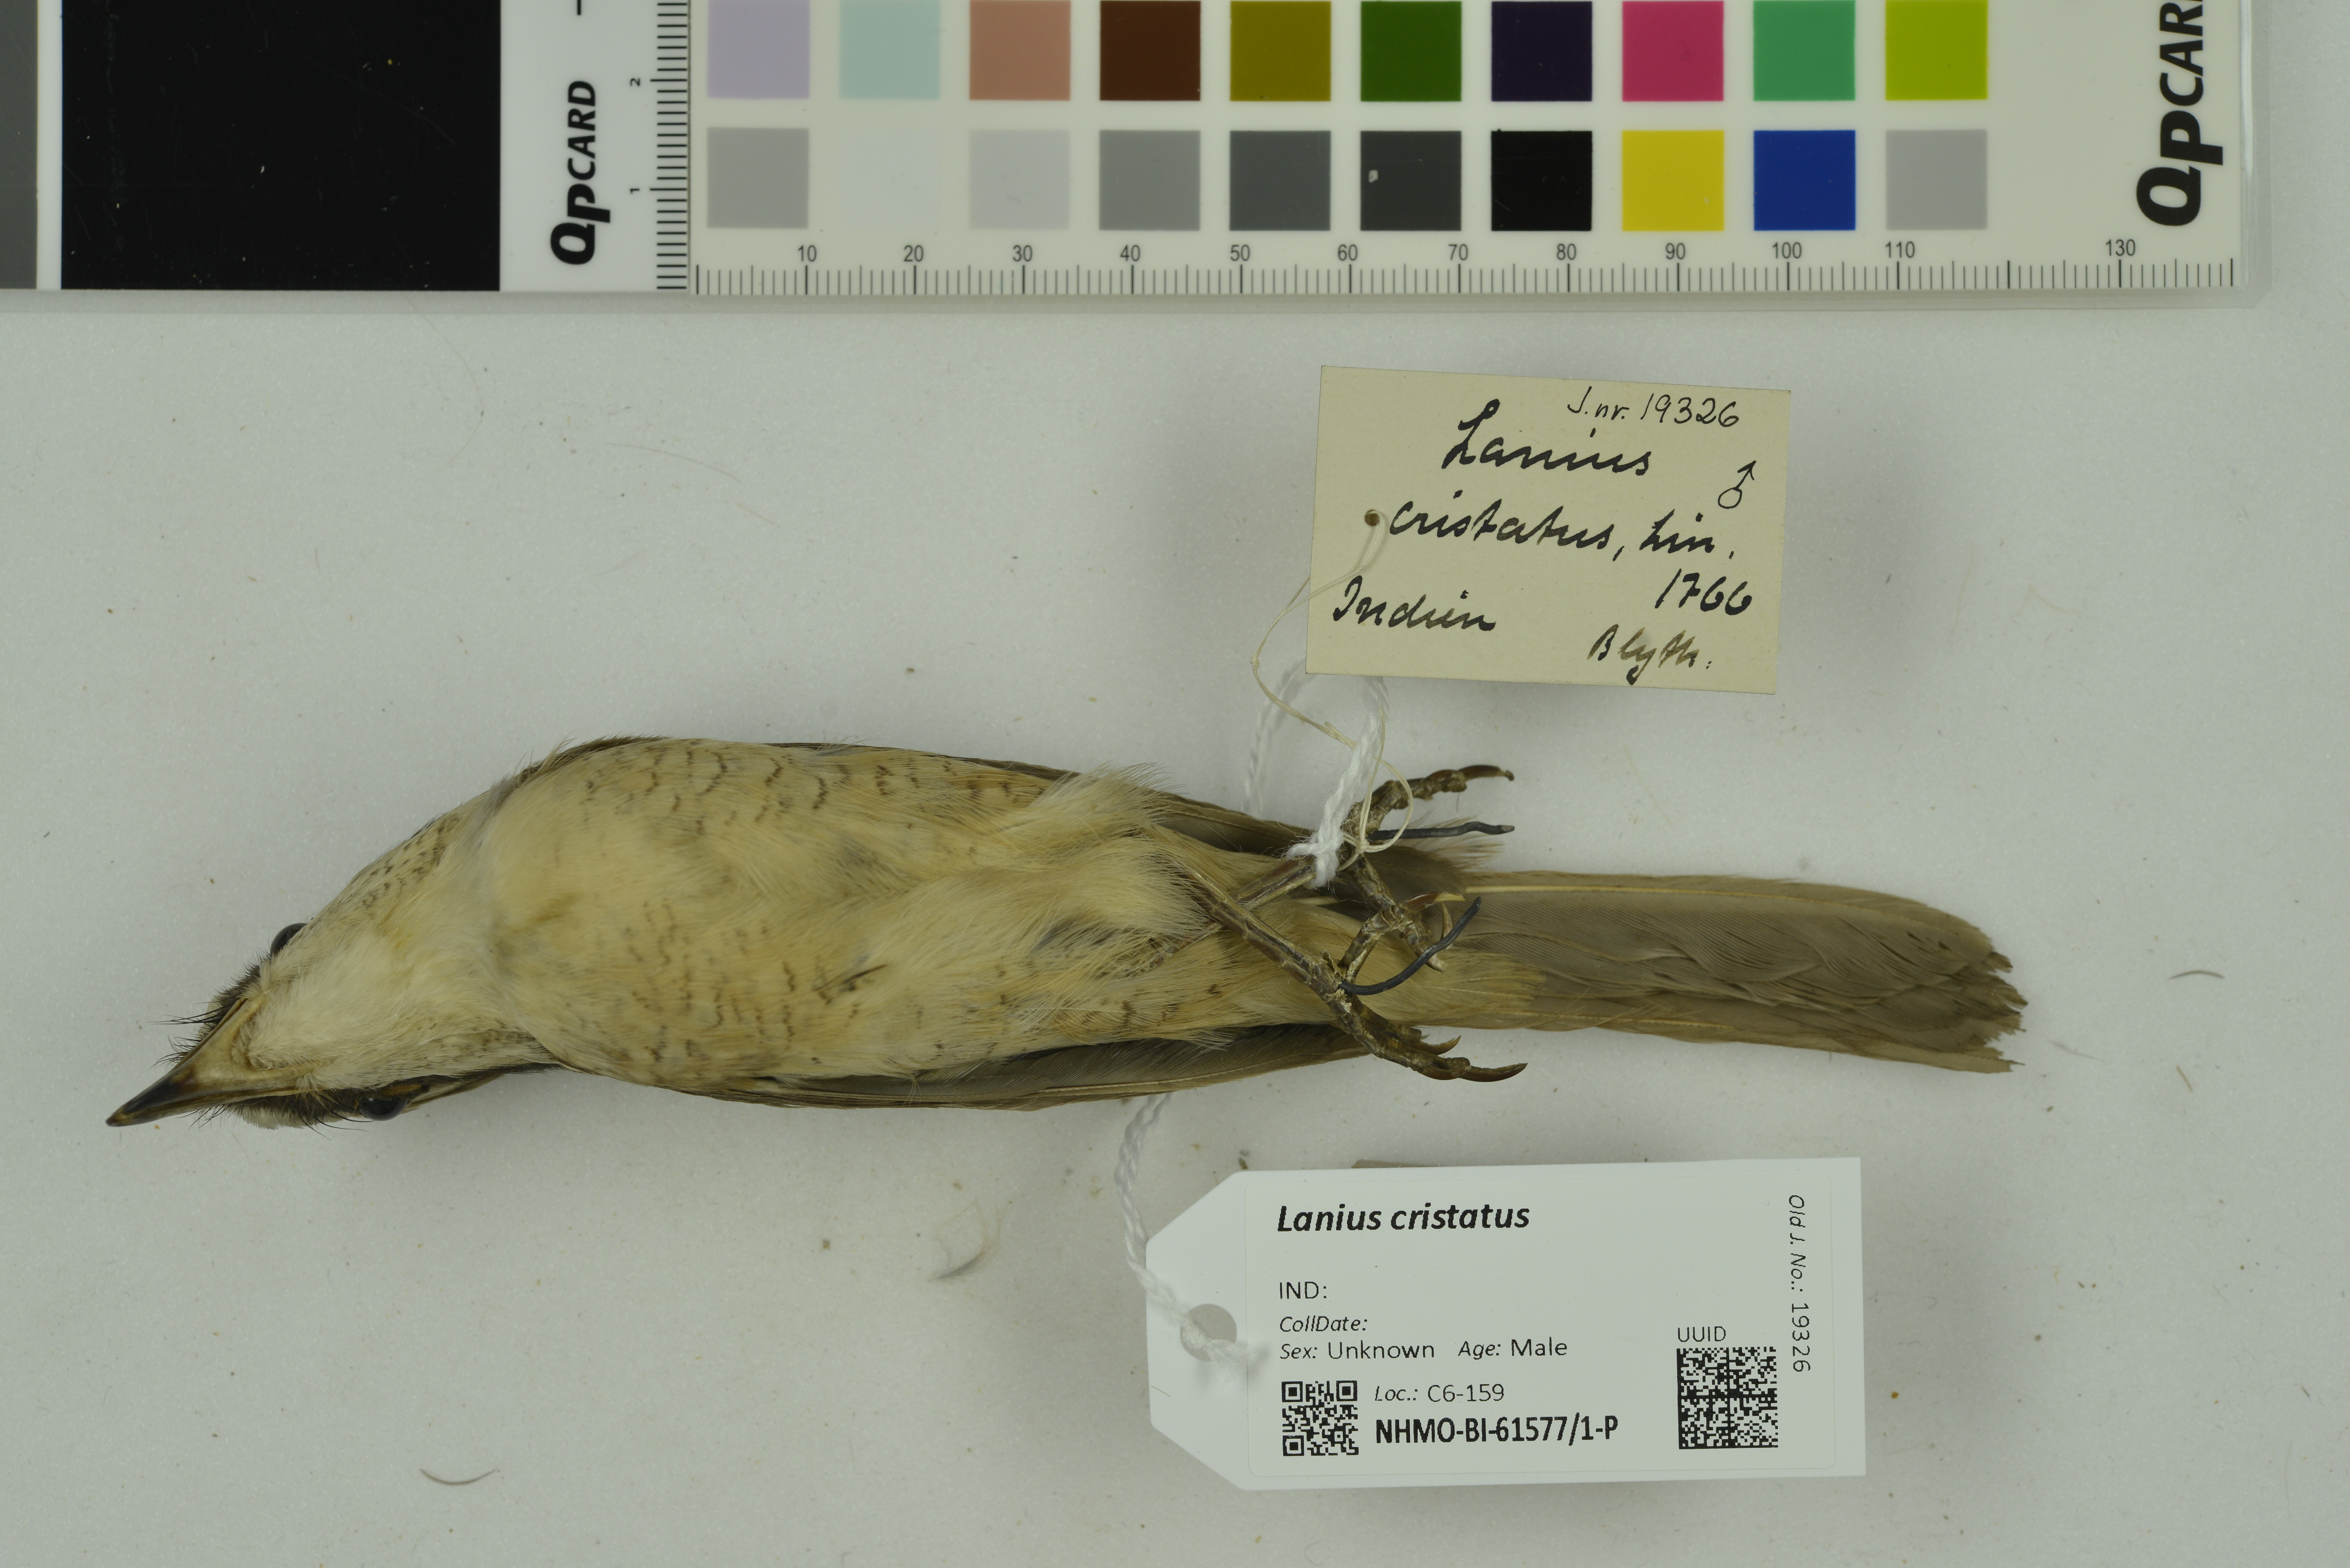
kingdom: Animalia
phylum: Chordata
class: Aves
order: Passeriformes
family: Laniidae
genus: Lanius
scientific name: Lanius cristatus
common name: Brown shrike
